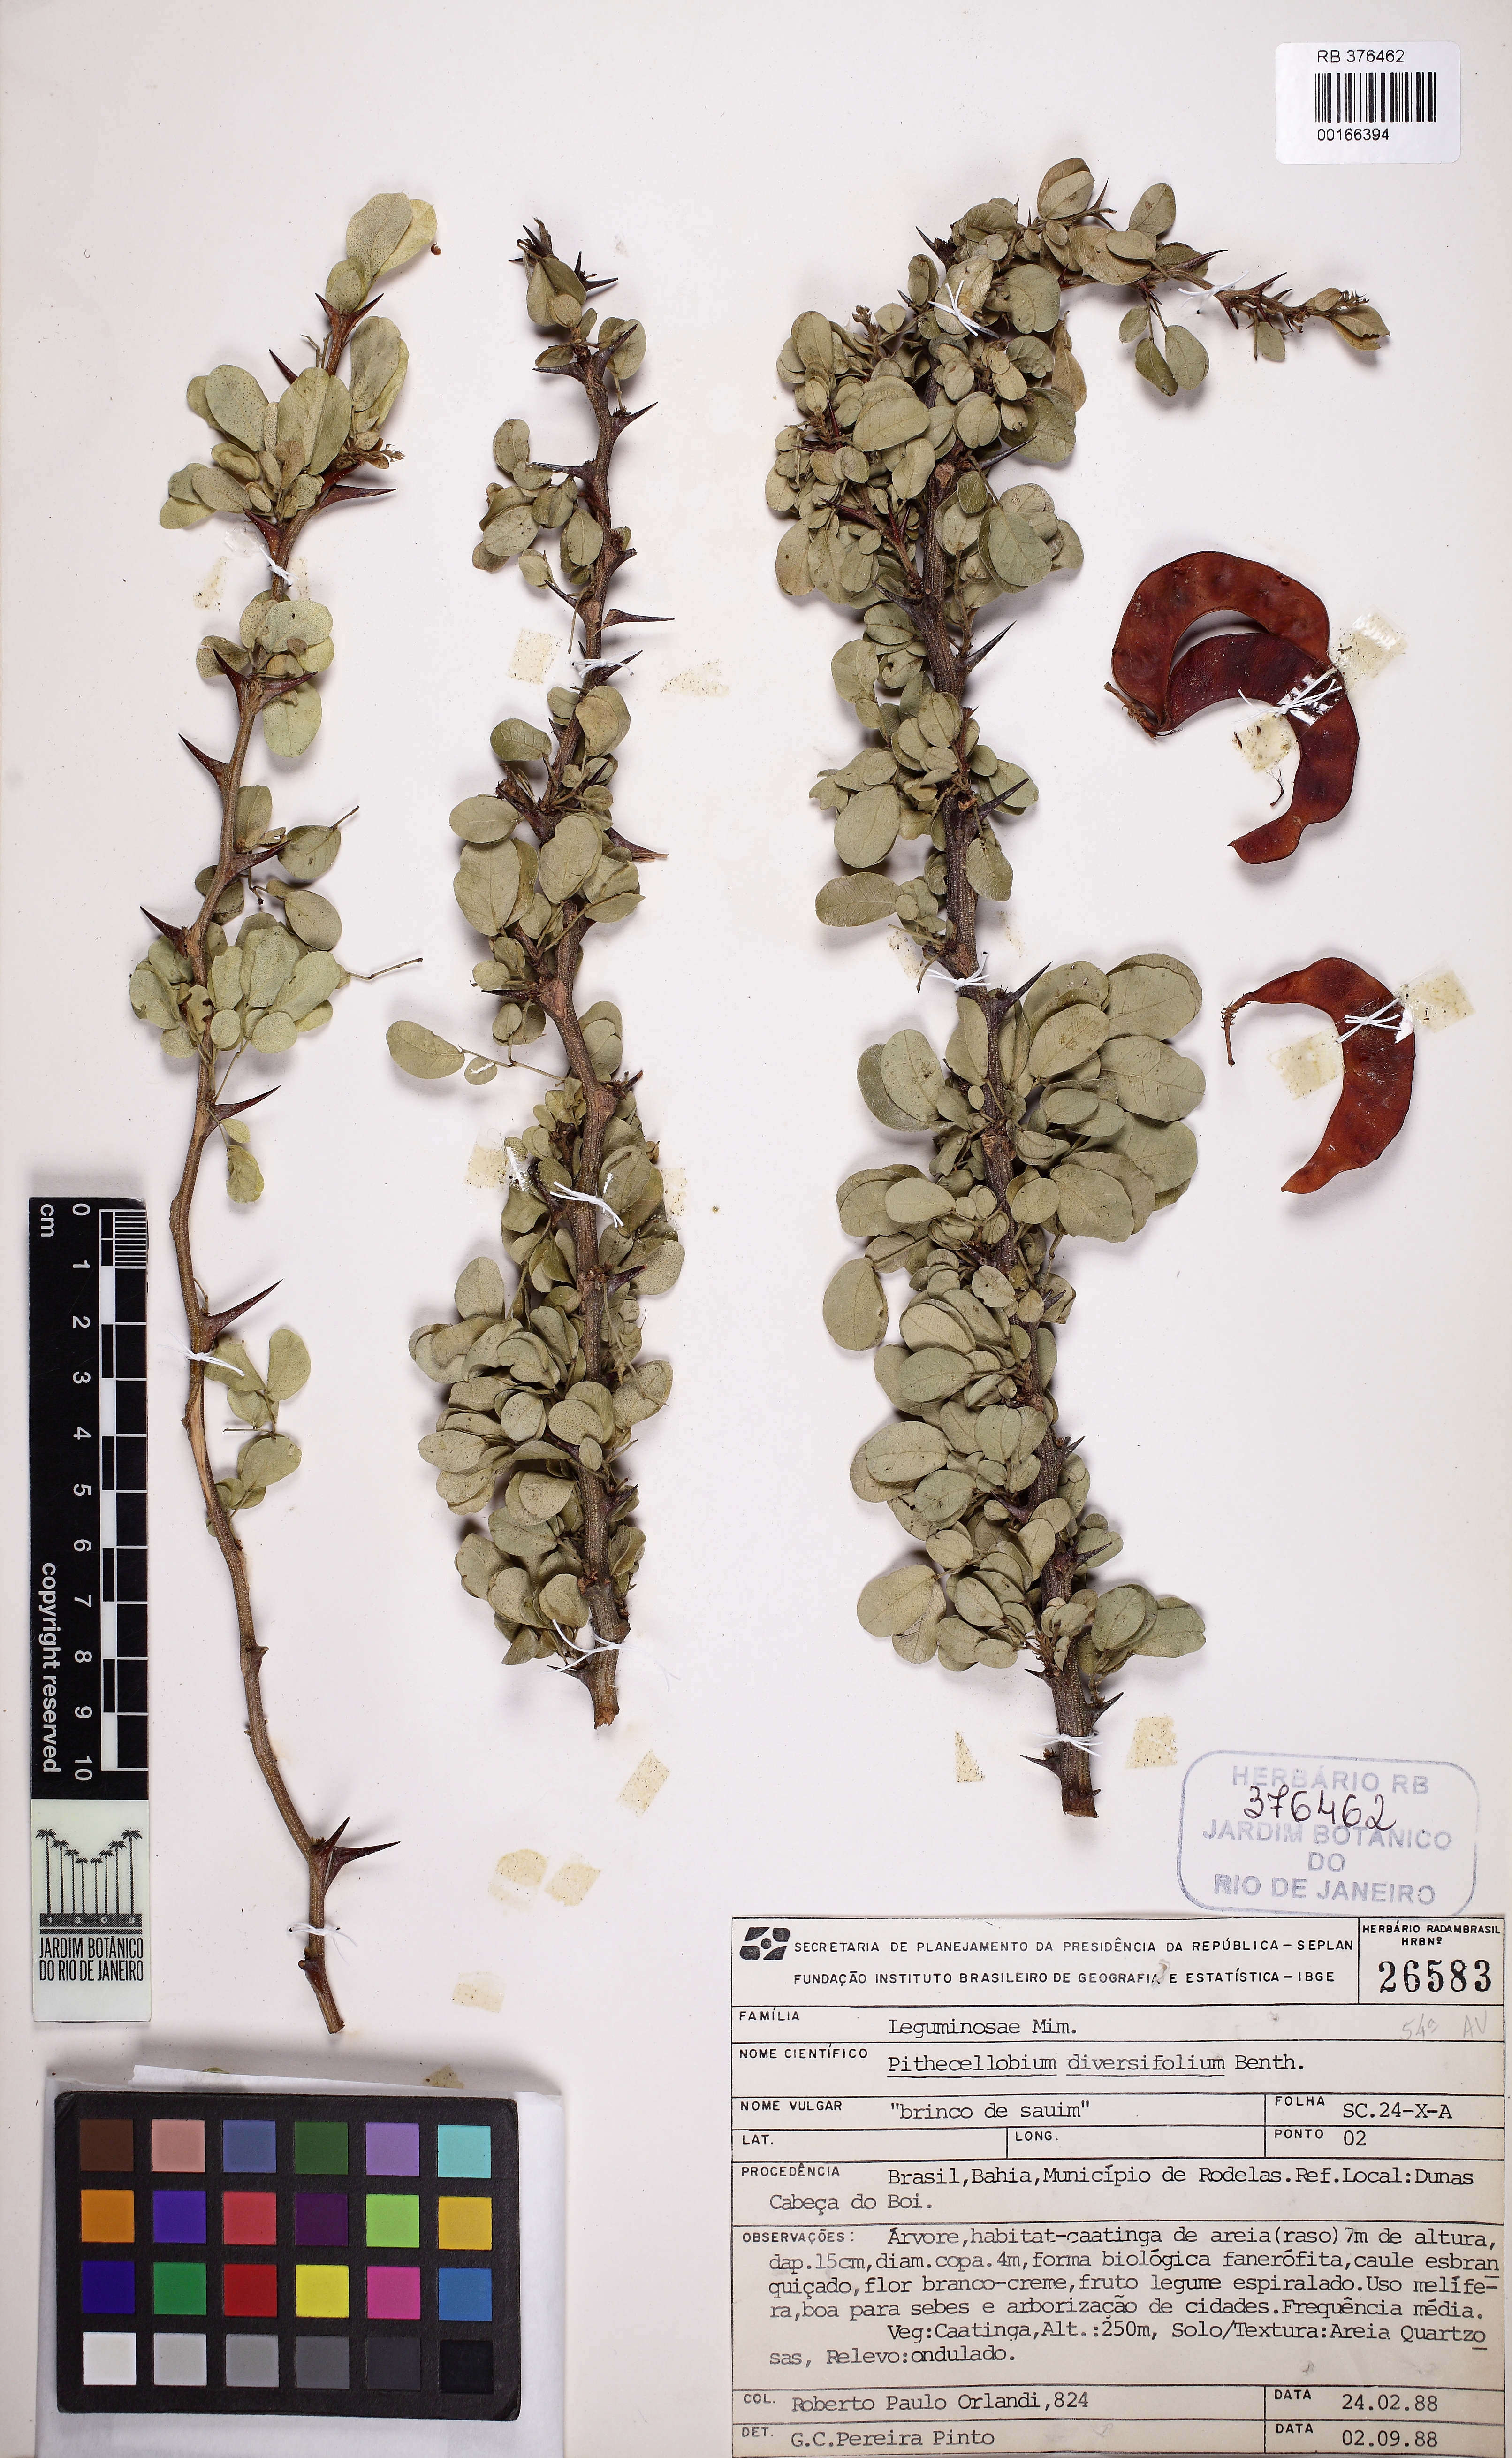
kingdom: Plantae
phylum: Tracheophyta
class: Magnoliopsida
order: Fabales
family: Fabaceae
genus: Pithecellobium
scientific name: Pithecellobium diversifolium
